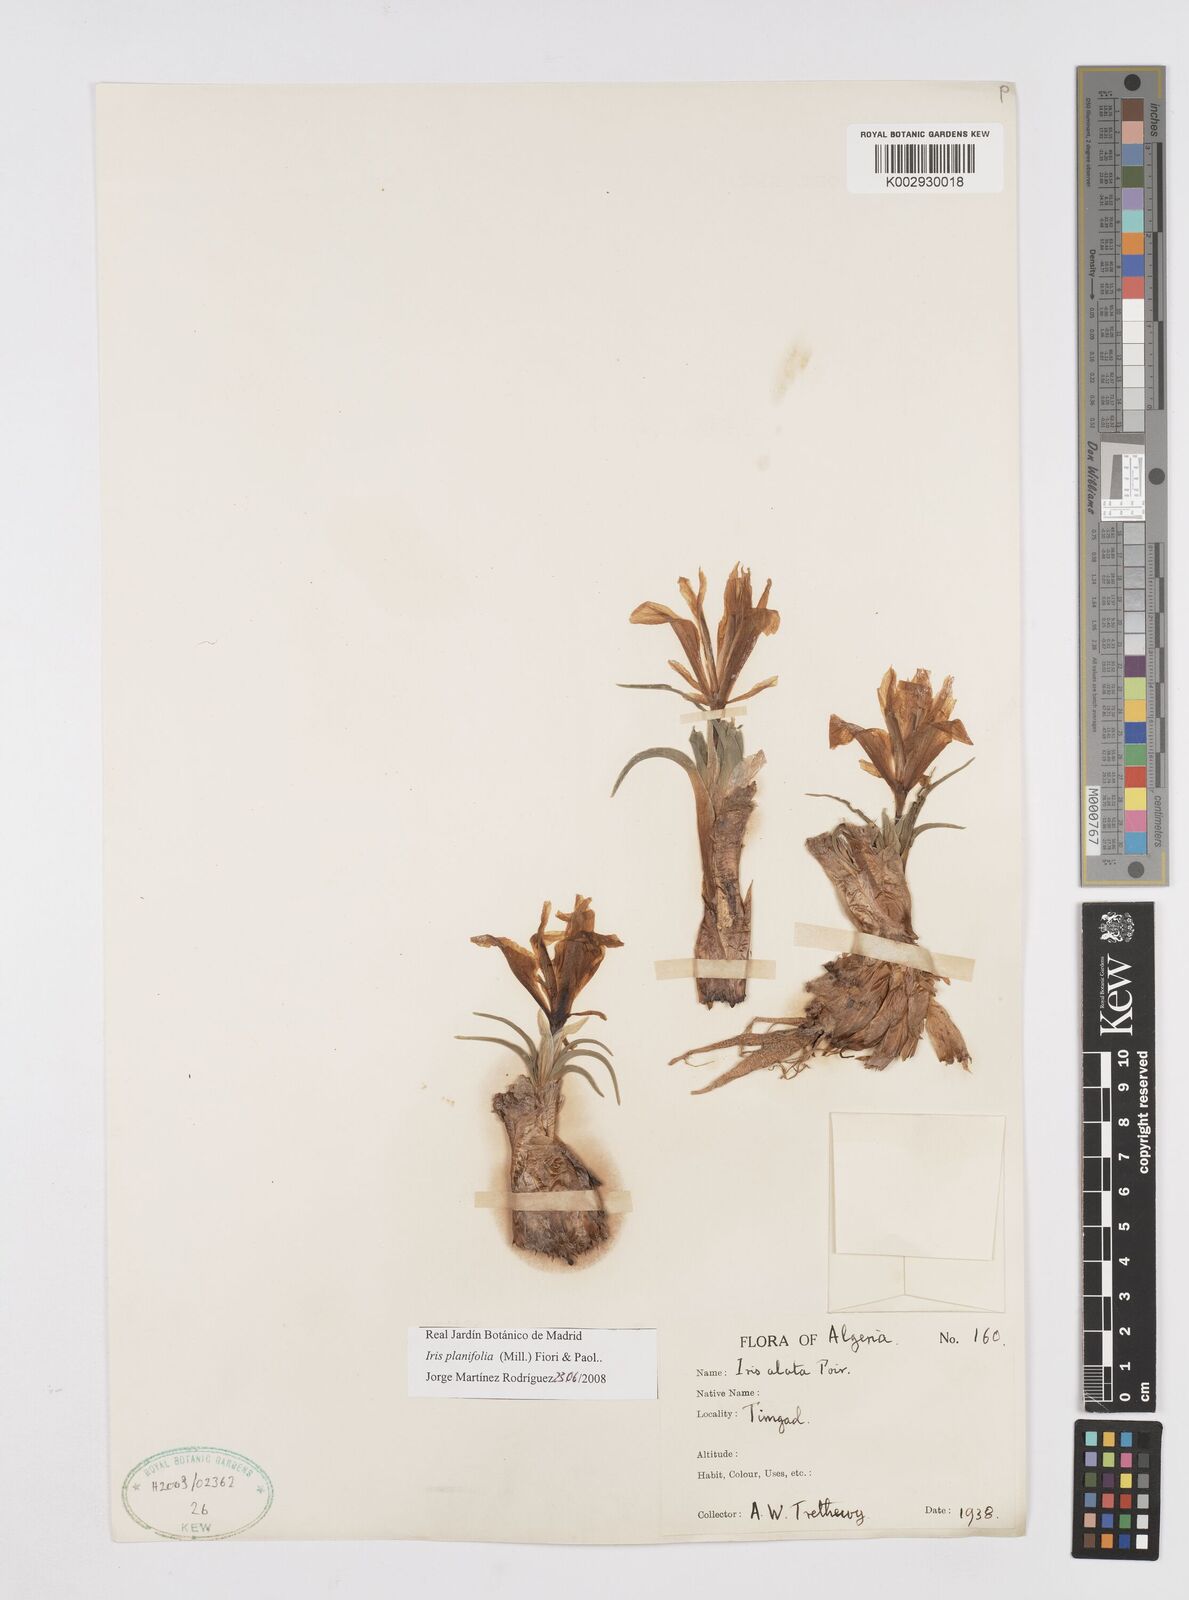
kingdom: Plantae
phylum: Tracheophyta
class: Liliopsida
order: Asparagales
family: Iridaceae
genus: Iris
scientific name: Iris planifolia
